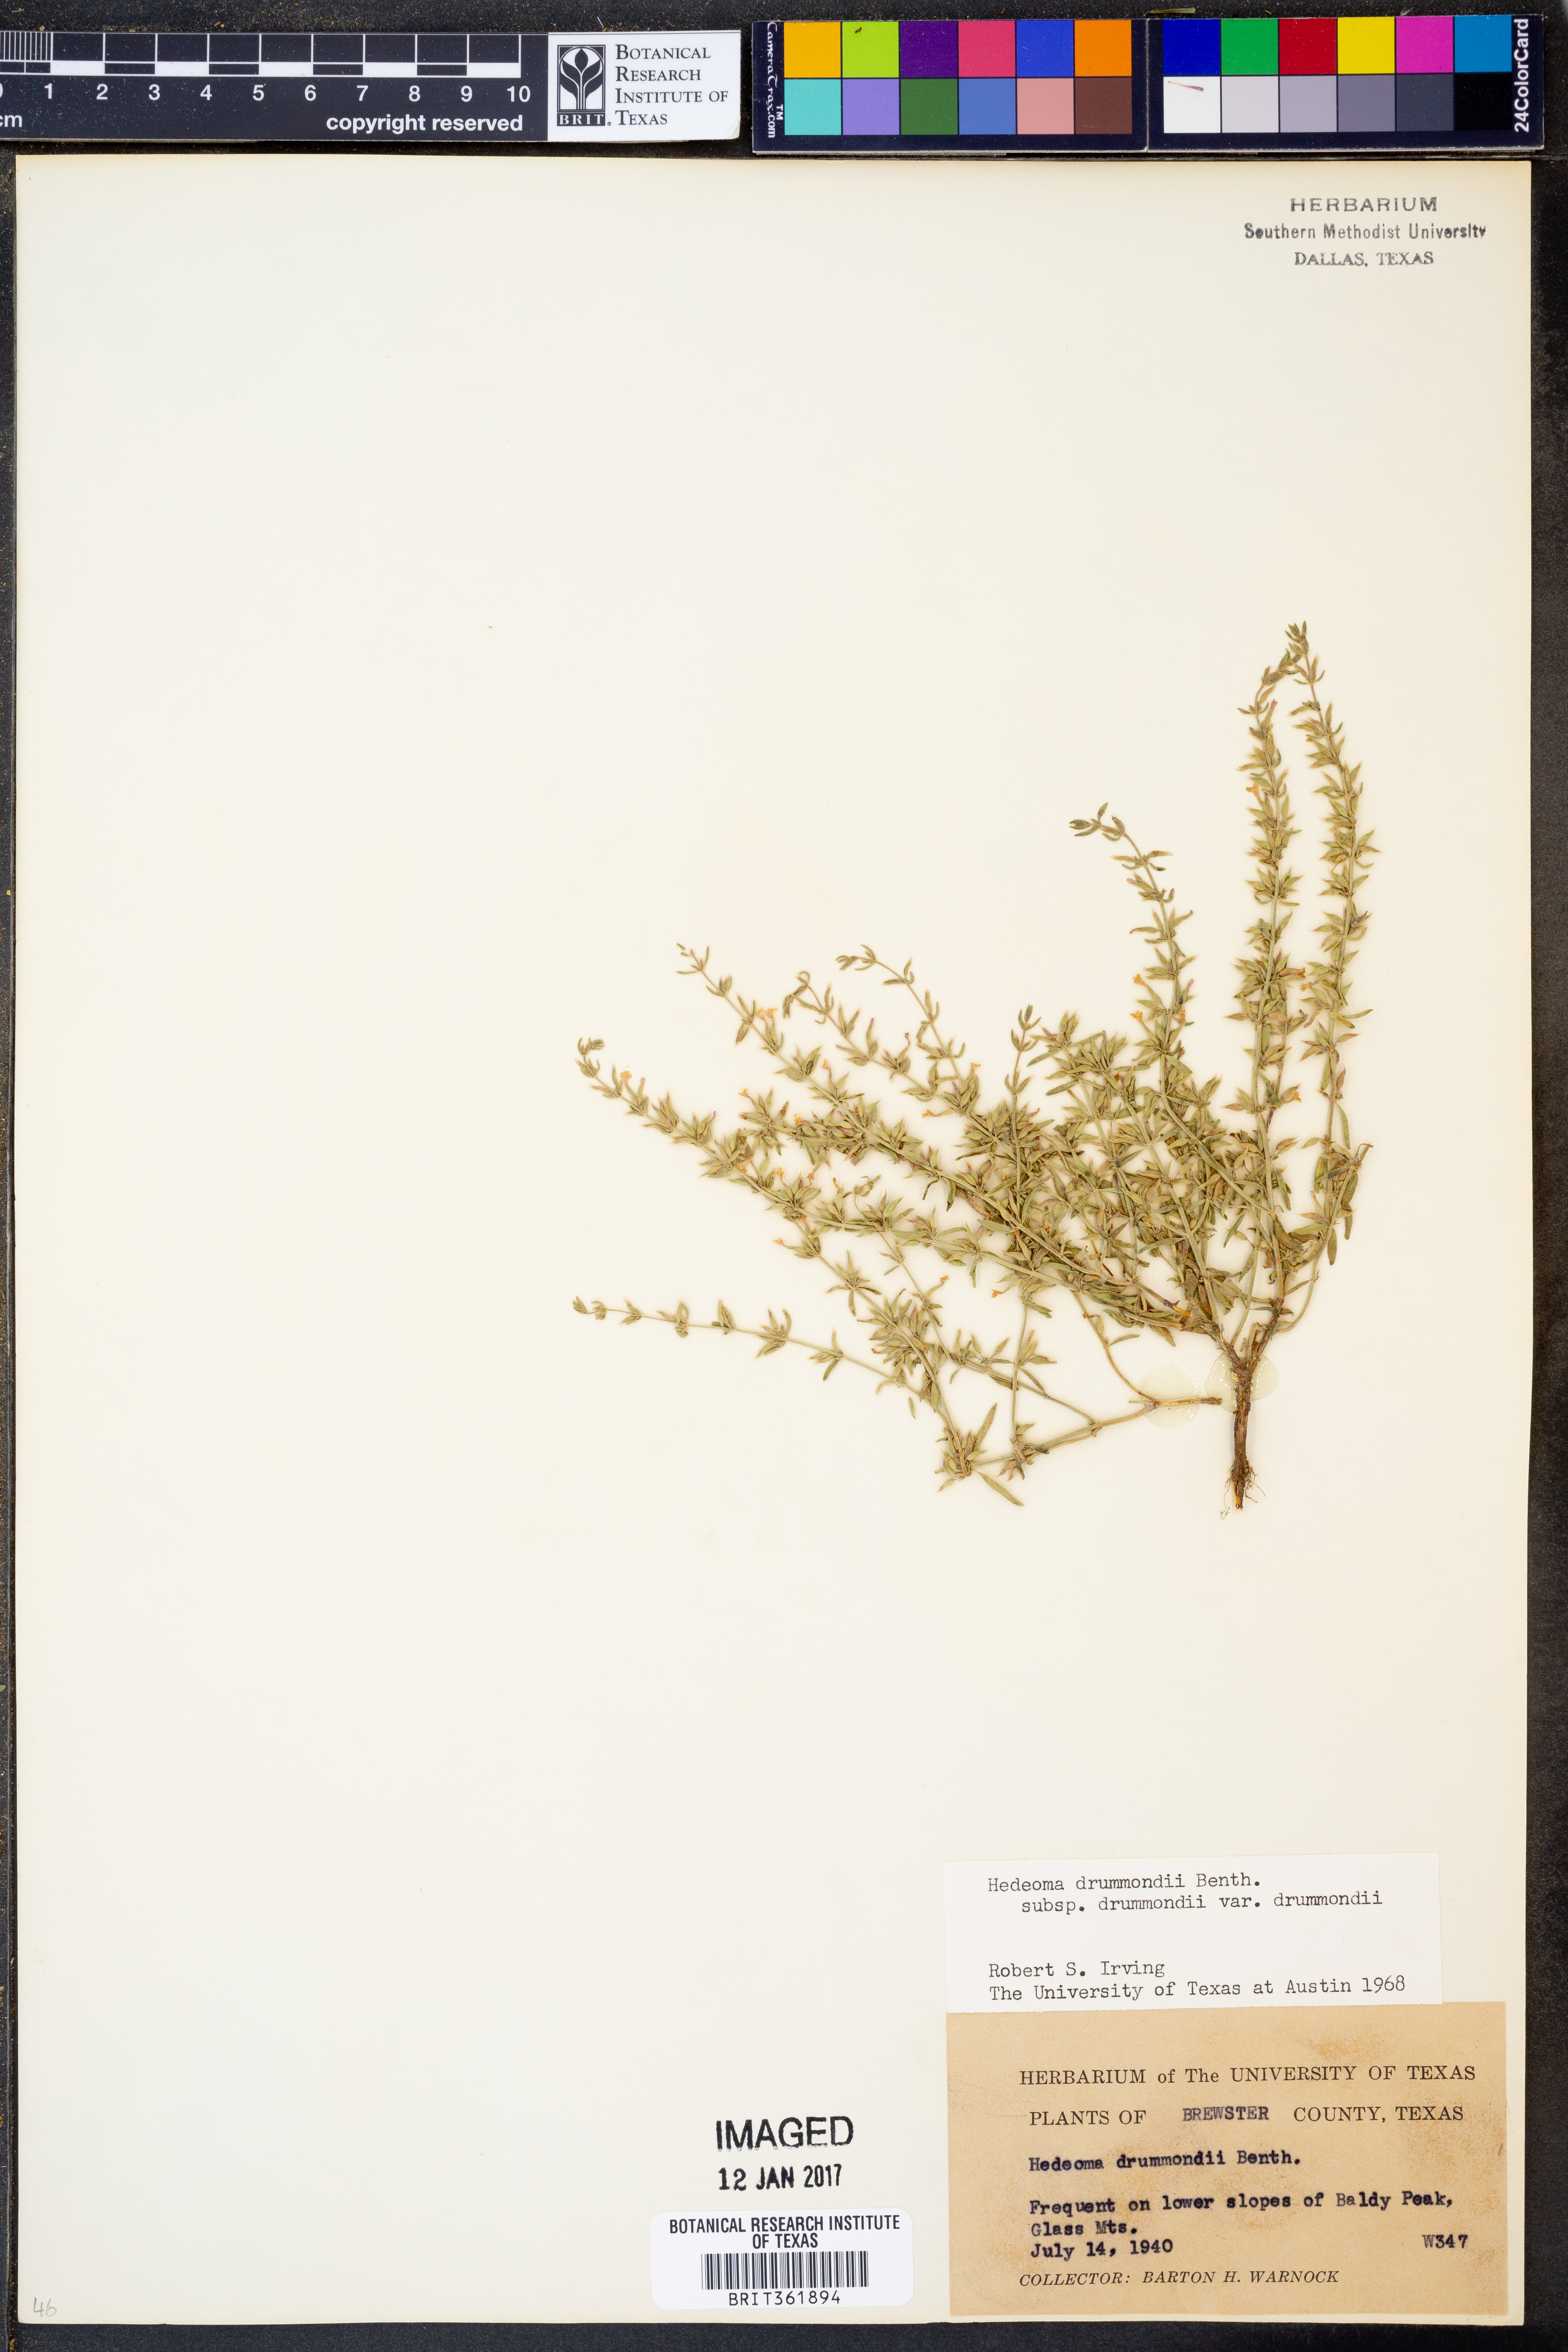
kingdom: Plantae
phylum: Tracheophyta
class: Magnoliopsida
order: Lamiales
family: Lamiaceae
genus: Hedeoma
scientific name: Hedeoma drummondii
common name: New mexico pennyroyal
